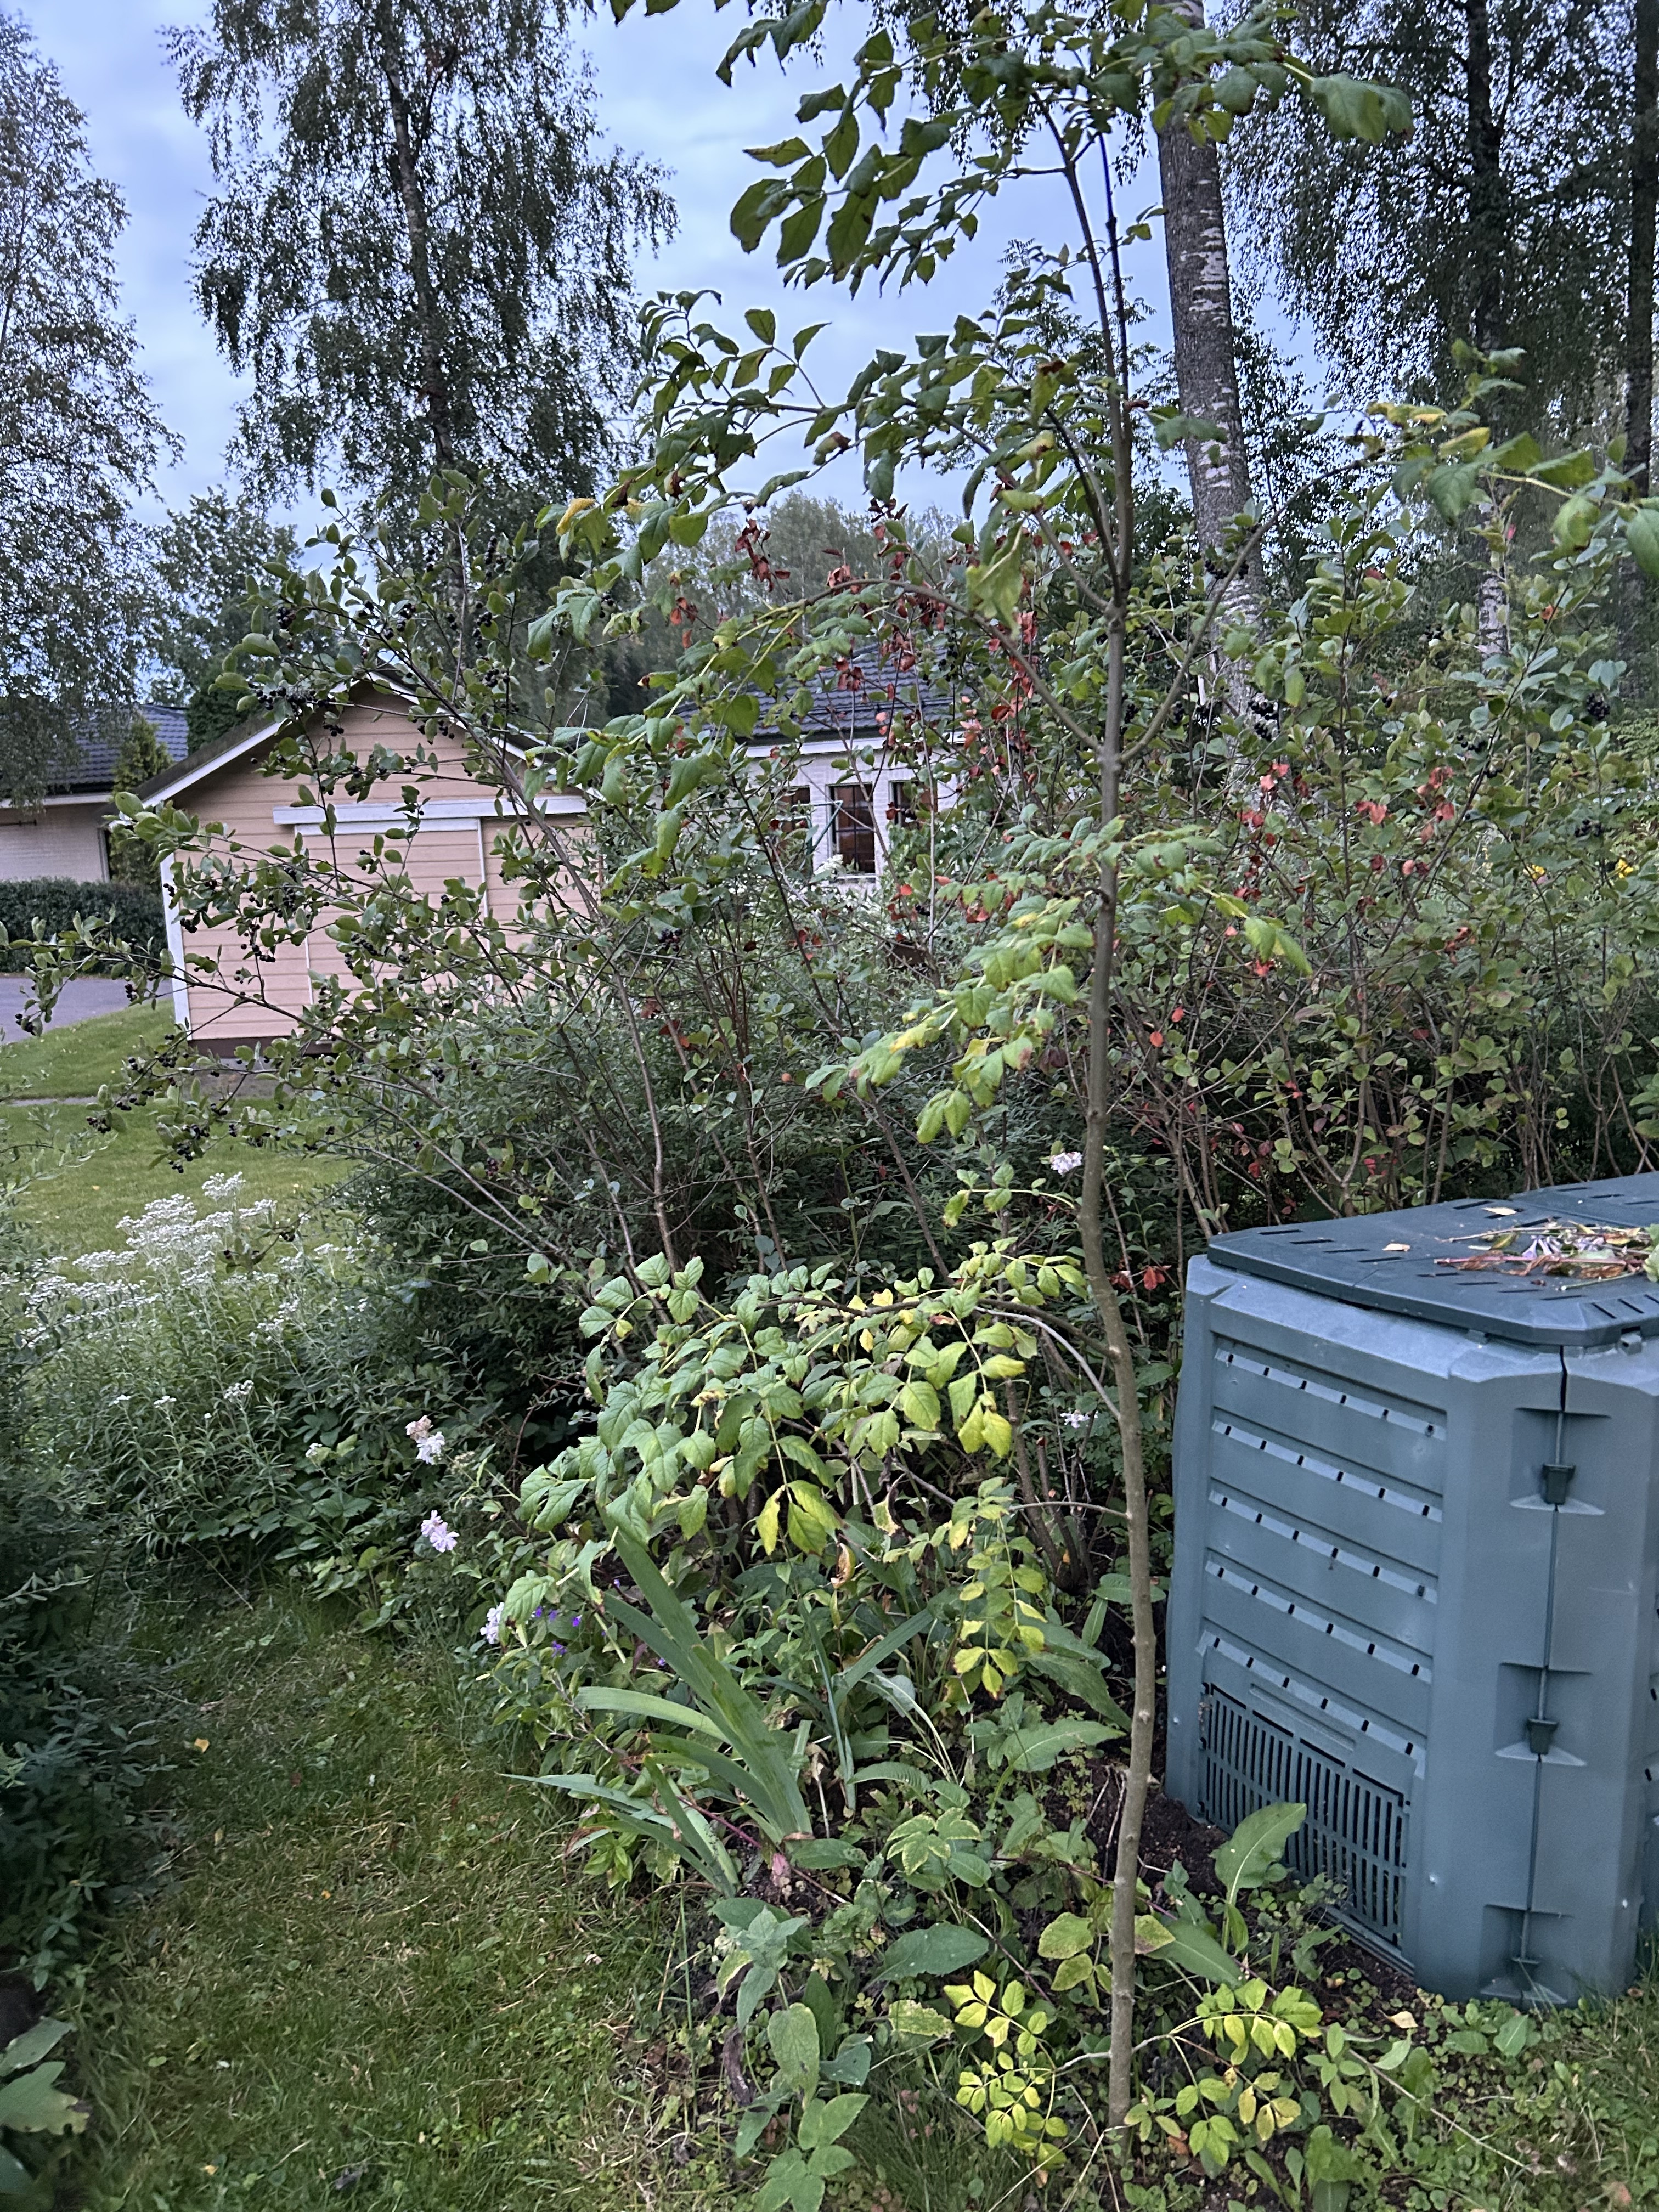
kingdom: Plantae
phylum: Tracheophyta
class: Magnoliopsida
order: Lamiales
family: Oleaceae
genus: Fraxinus
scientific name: Fraxinus excelsior
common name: European ash
